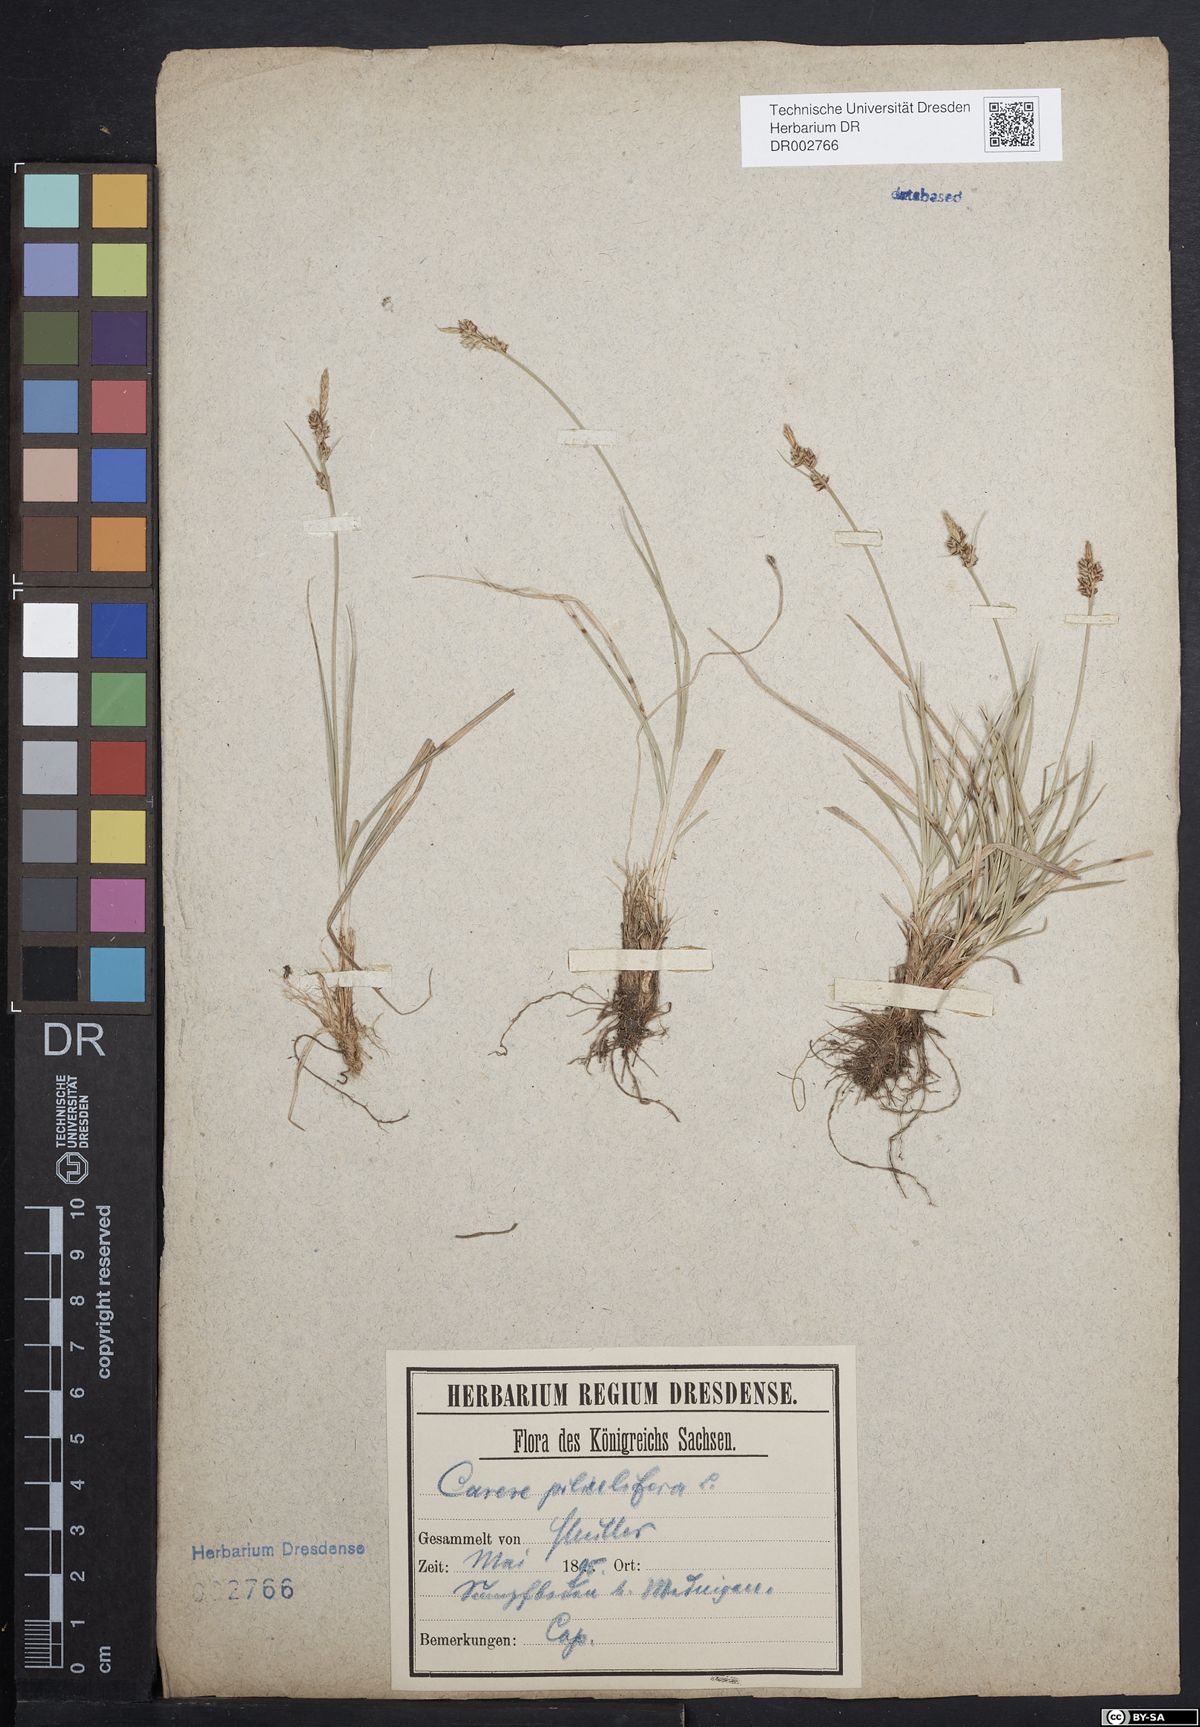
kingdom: Plantae
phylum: Tracheophyta
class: Liliopsida
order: Poales
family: Cyperaceae
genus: Carex
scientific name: Carex caryophyllea
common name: Spring sedge
